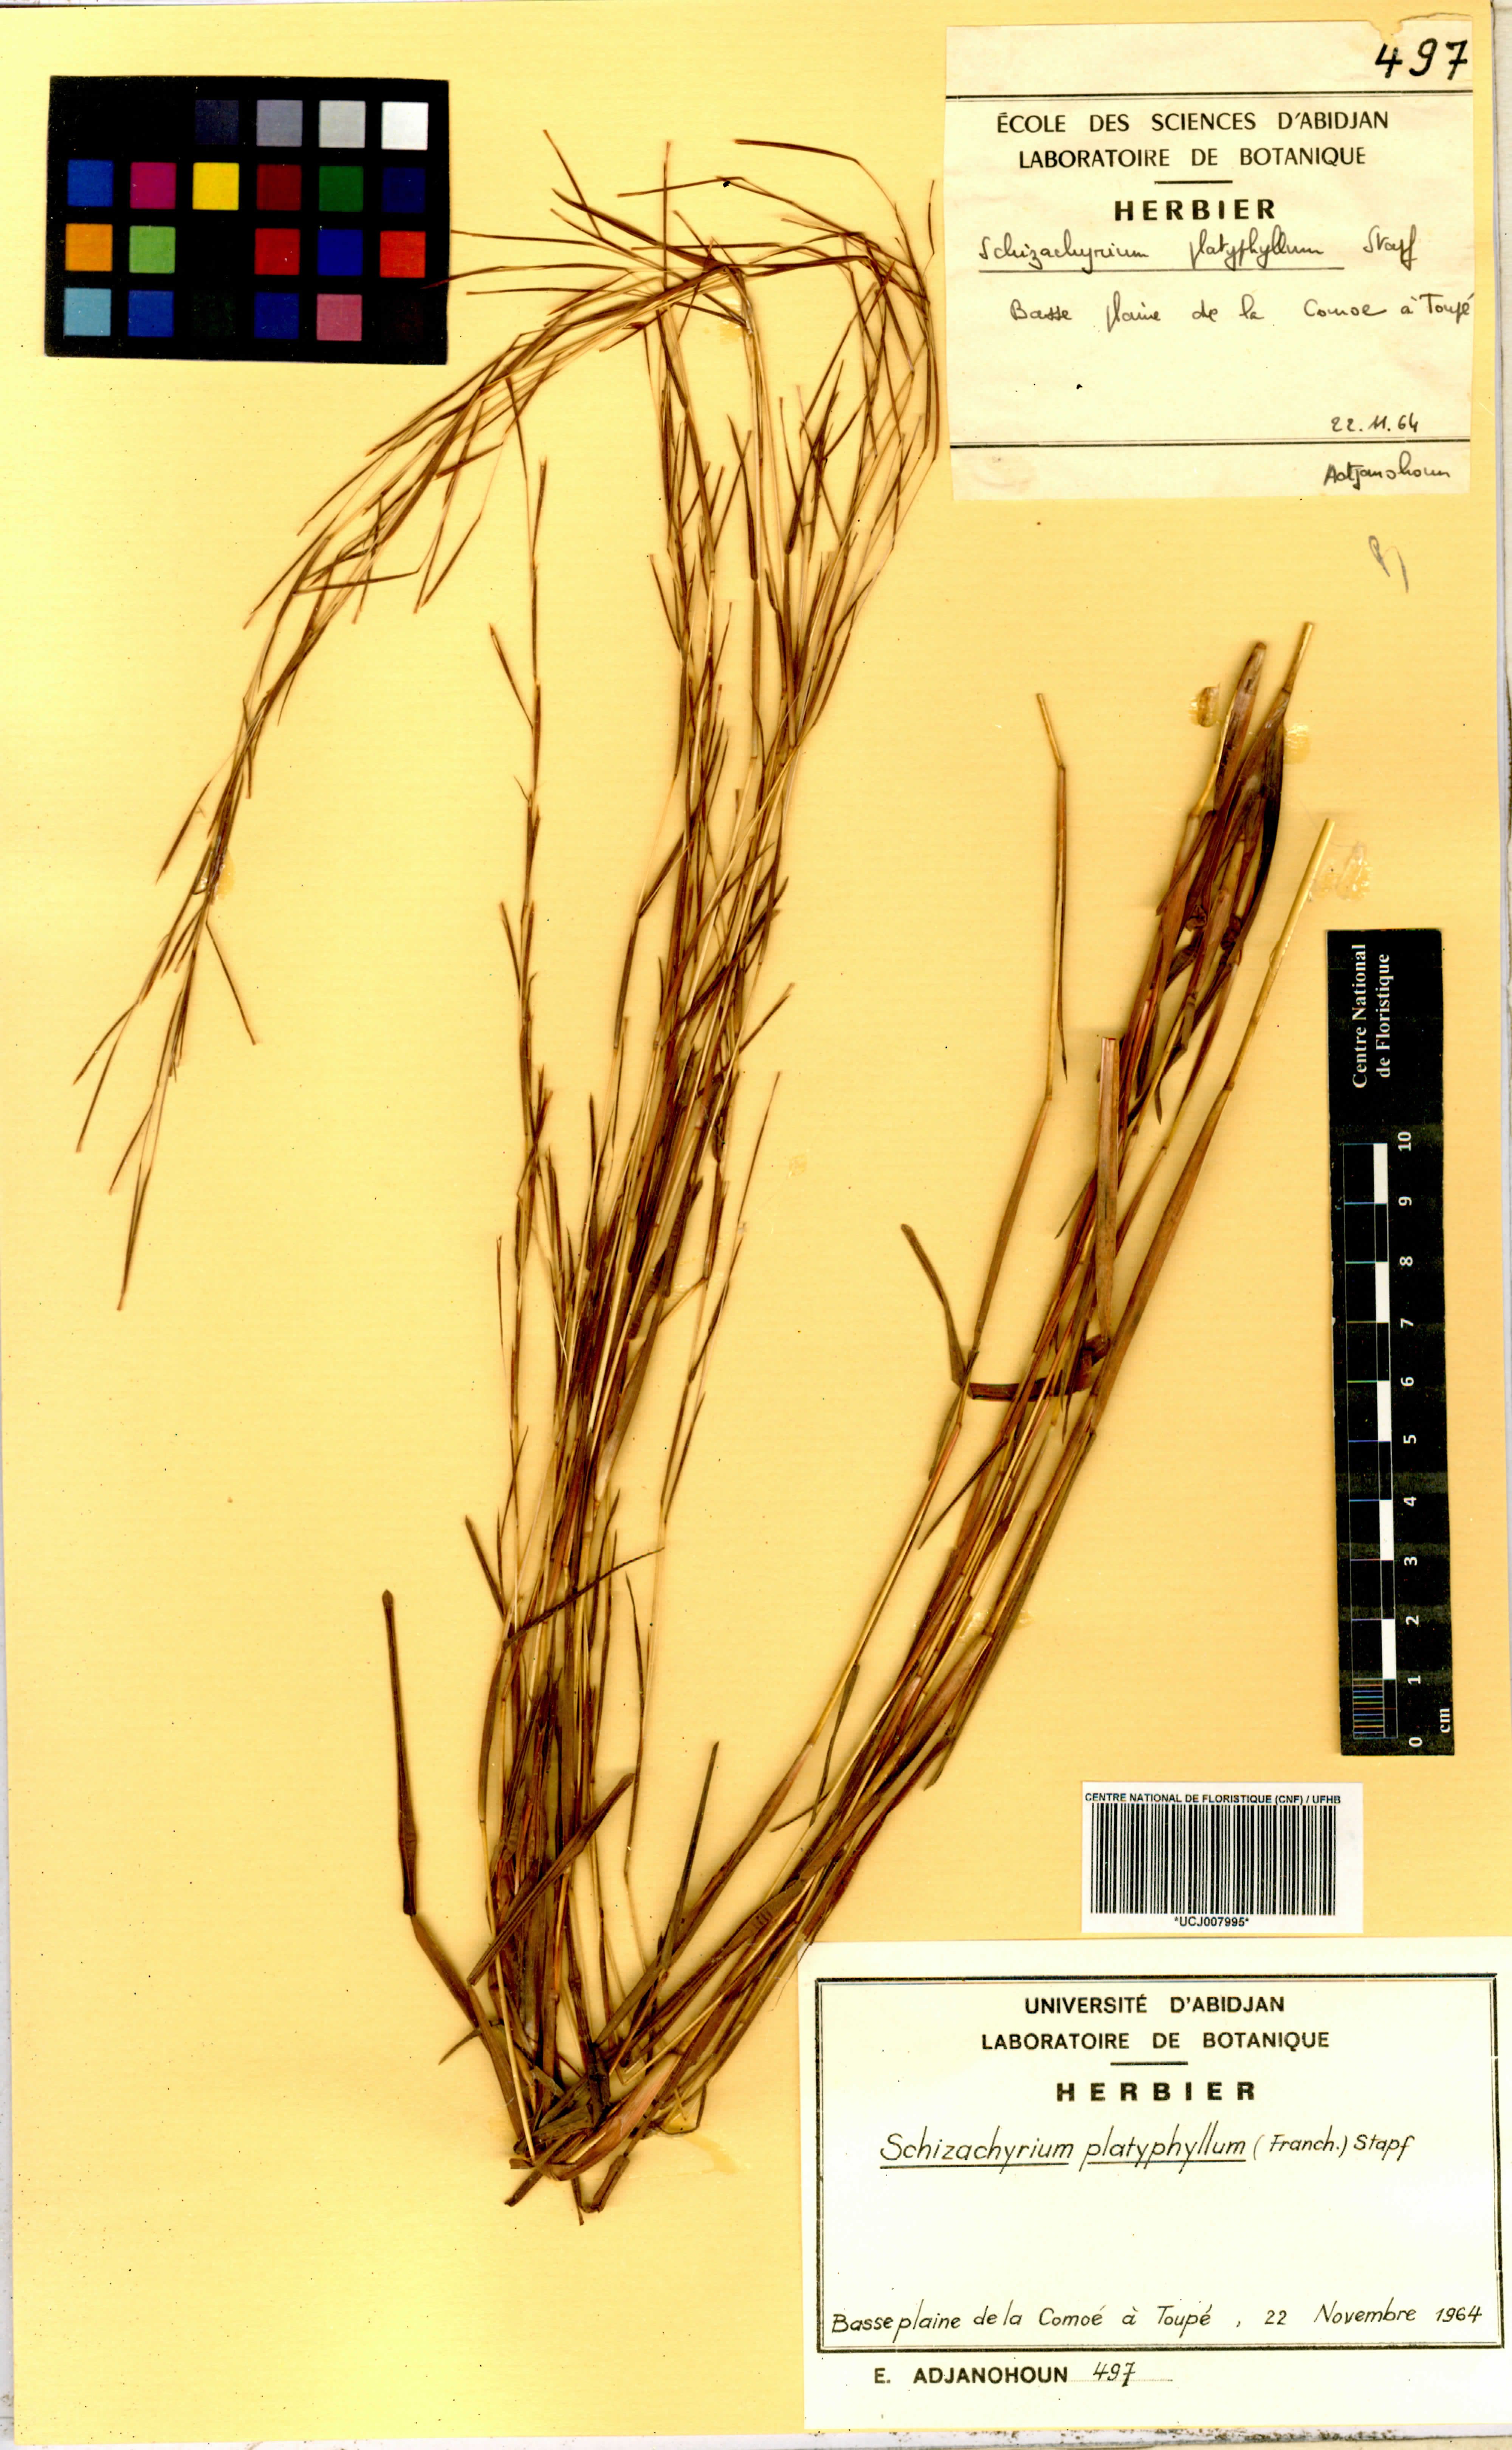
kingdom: Plantae
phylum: Tracheophyta
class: Liliopsida
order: Poales
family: Poaceae
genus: Schizachyrium
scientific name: Schizachyrium platyphyllum
